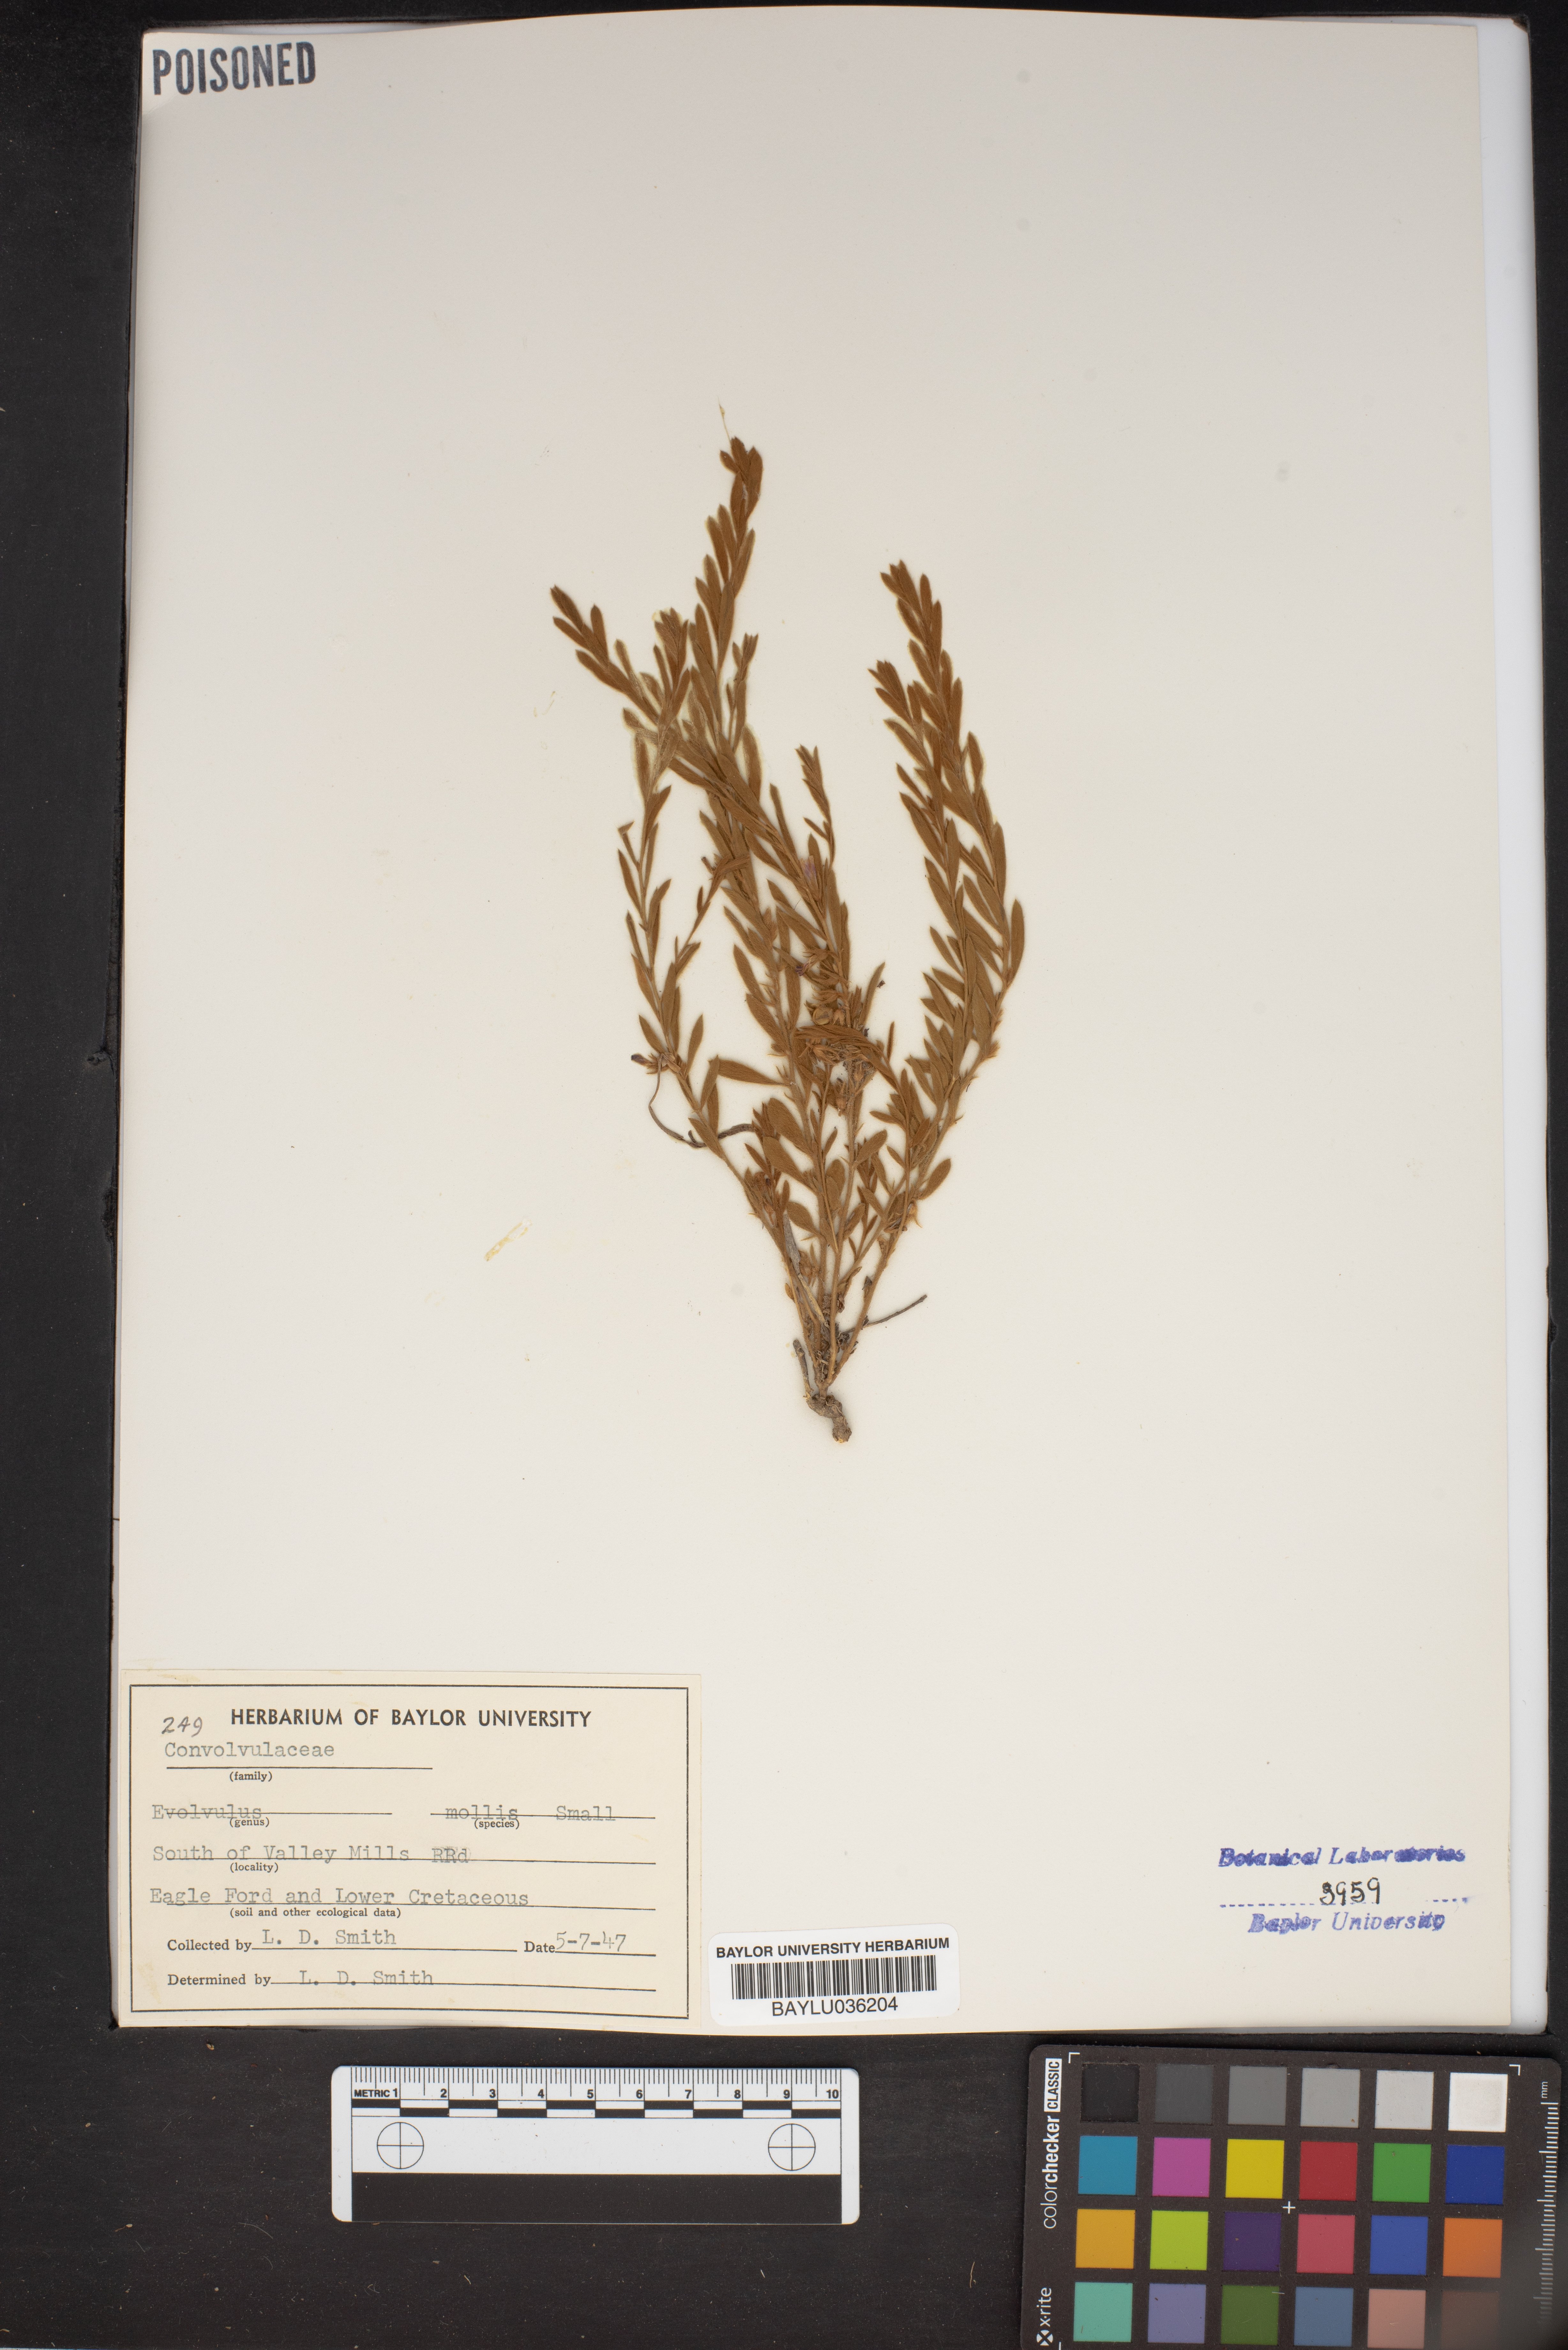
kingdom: Plantae
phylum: Tracheophyta
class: Magnoliopsida
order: Solanales
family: Convolvulaceae
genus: Evolvulus
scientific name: Evolvulus nuttallianus
